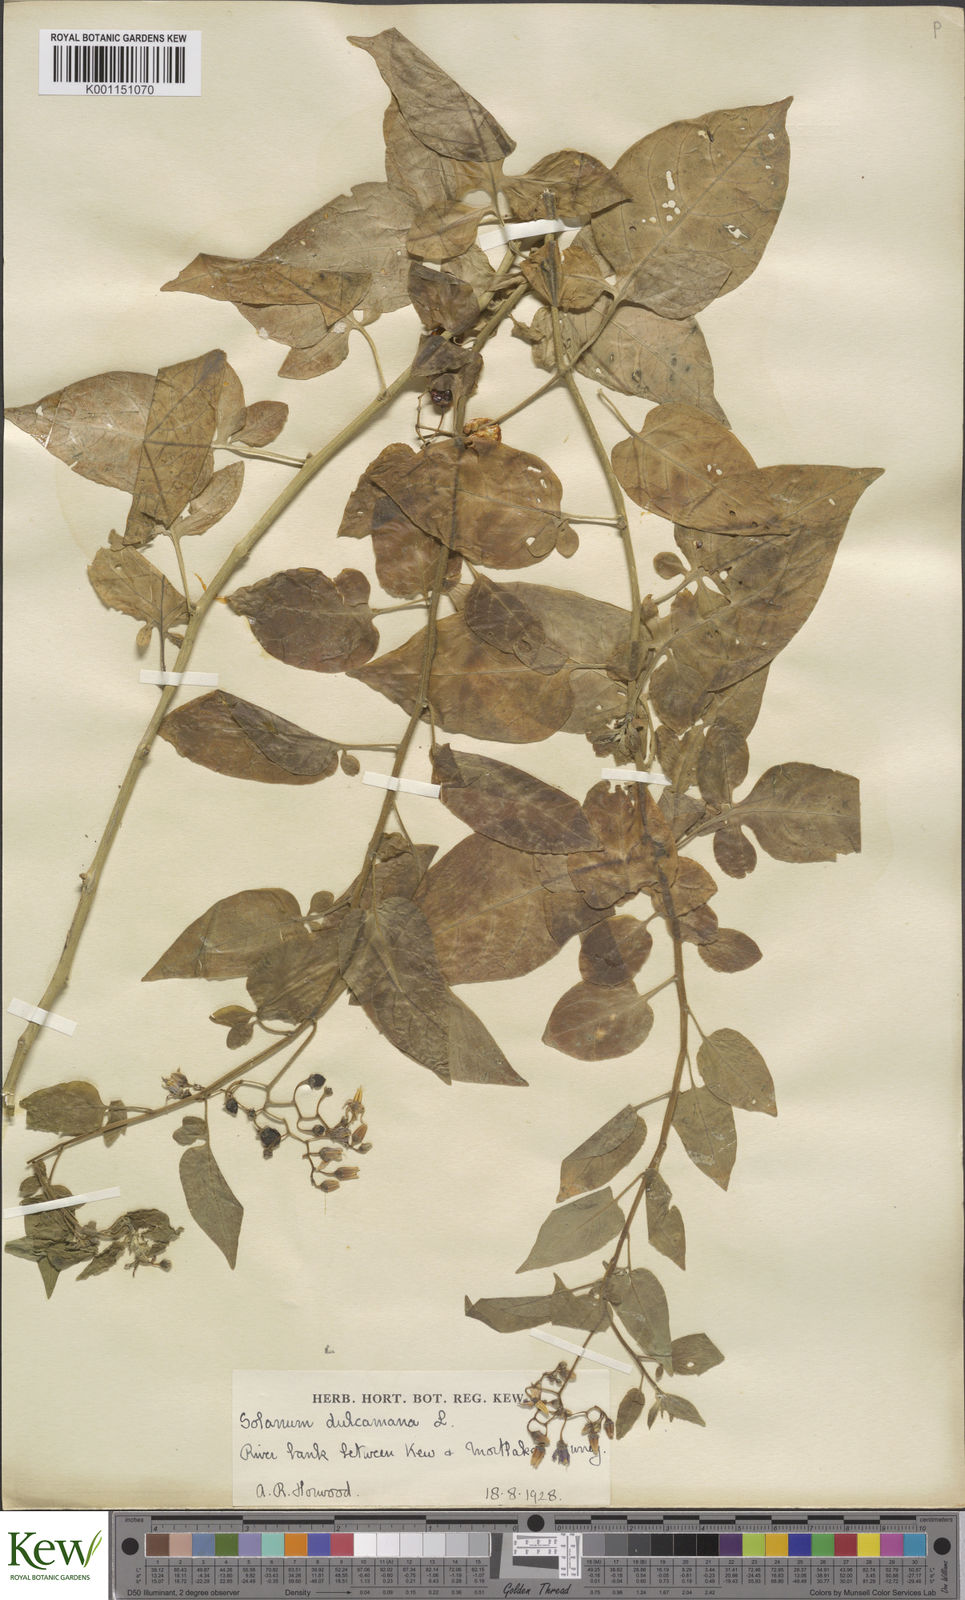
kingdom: Plantae
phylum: Tracheophyta
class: Magnoliopsida
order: Solanales
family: Solanaceae
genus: Solanum
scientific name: Solanum dulcamara
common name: Climbing nightshade
